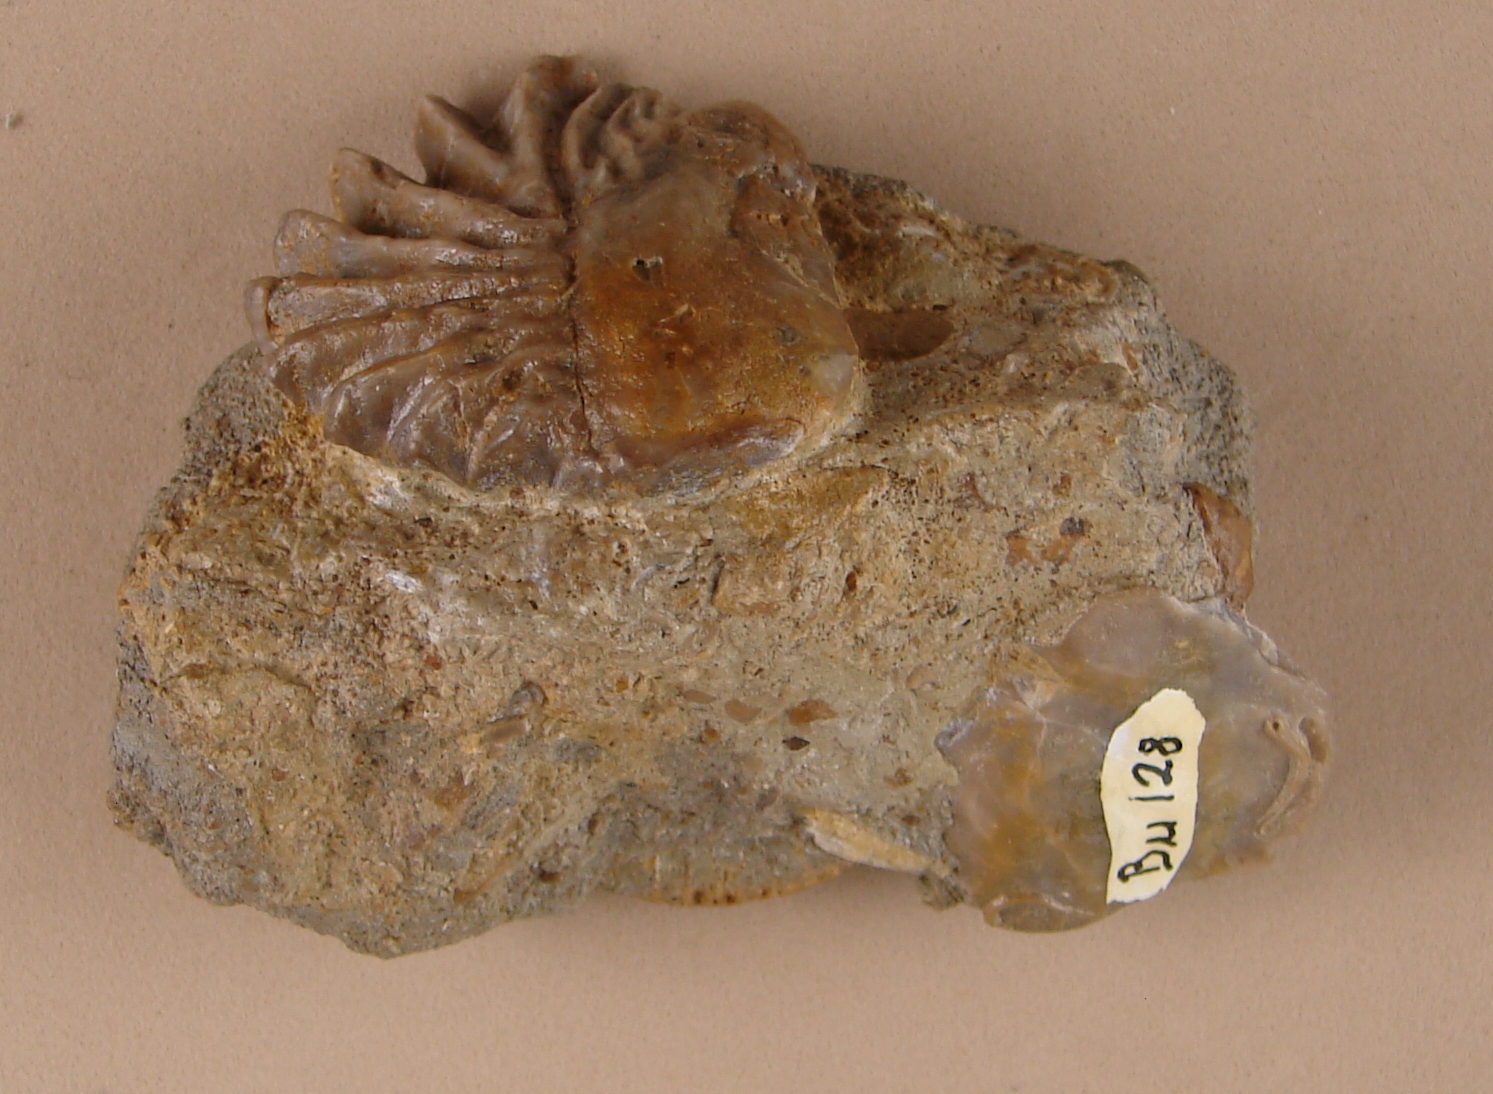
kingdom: Animalia
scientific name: Animalia
